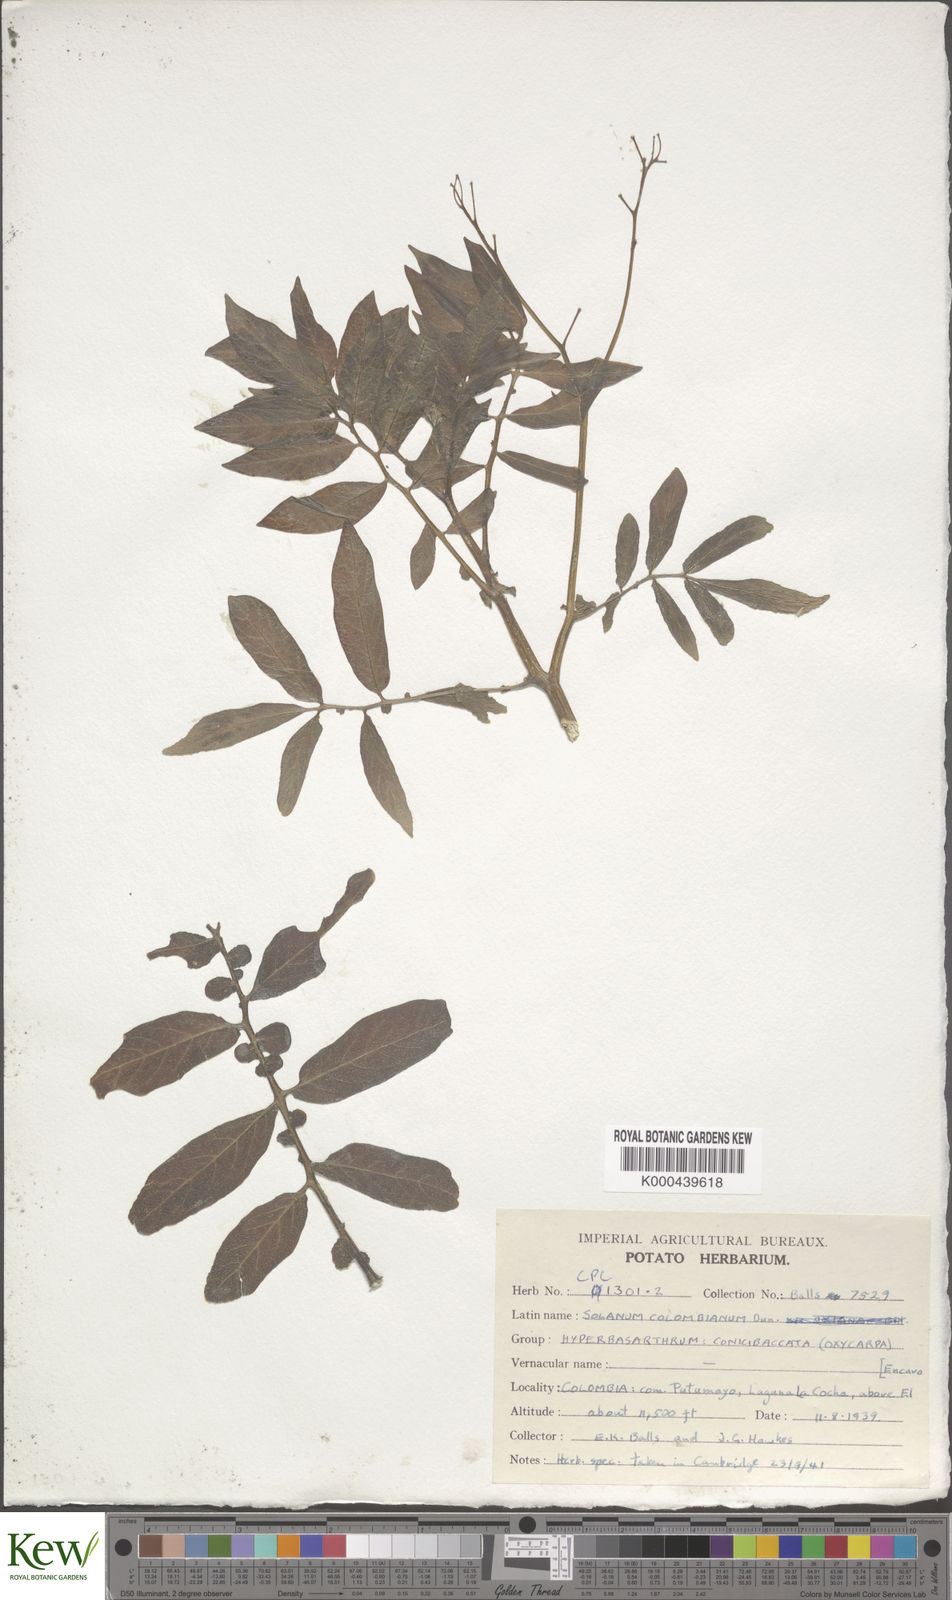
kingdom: Plantae
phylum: Tracheophyta
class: Magnoliopsida
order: Solanales
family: Solanaceae
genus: Solanum
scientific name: Solanum colombianum
